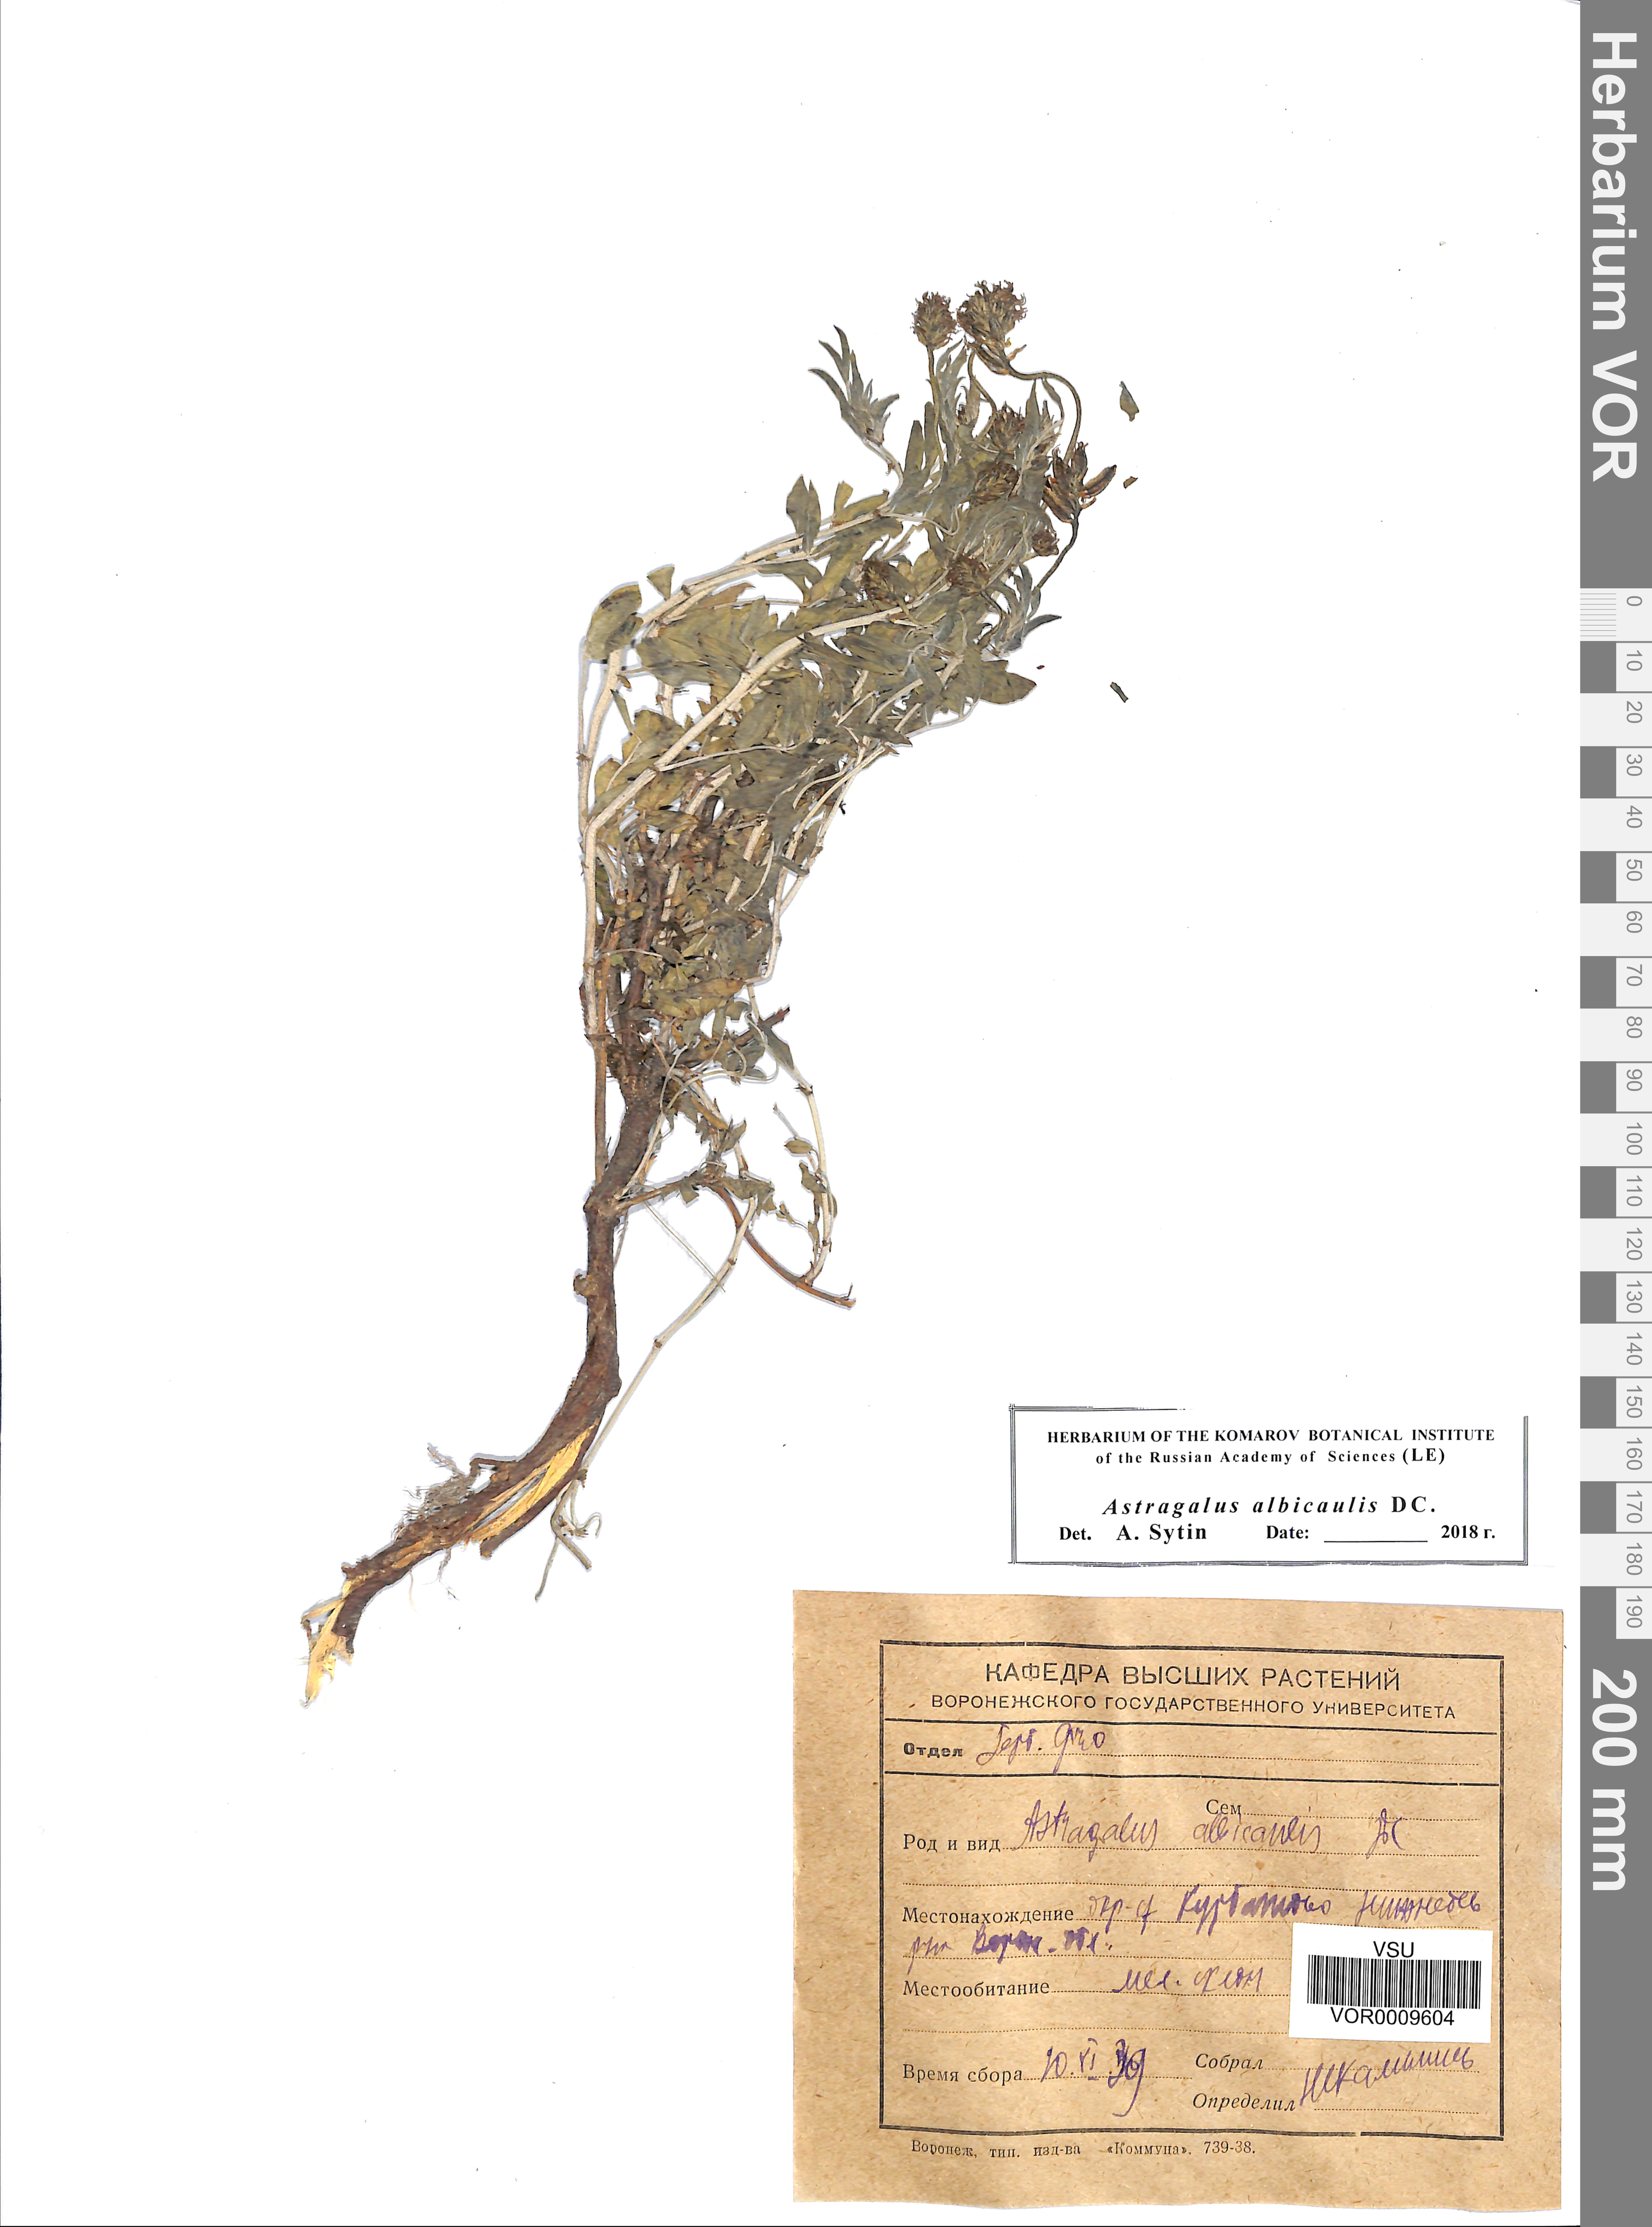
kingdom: Plantae
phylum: Tracheophyta
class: Magnoliopsida
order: Fabales
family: Fabaceae
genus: Astragalus
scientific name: Astragalus albicaulis
